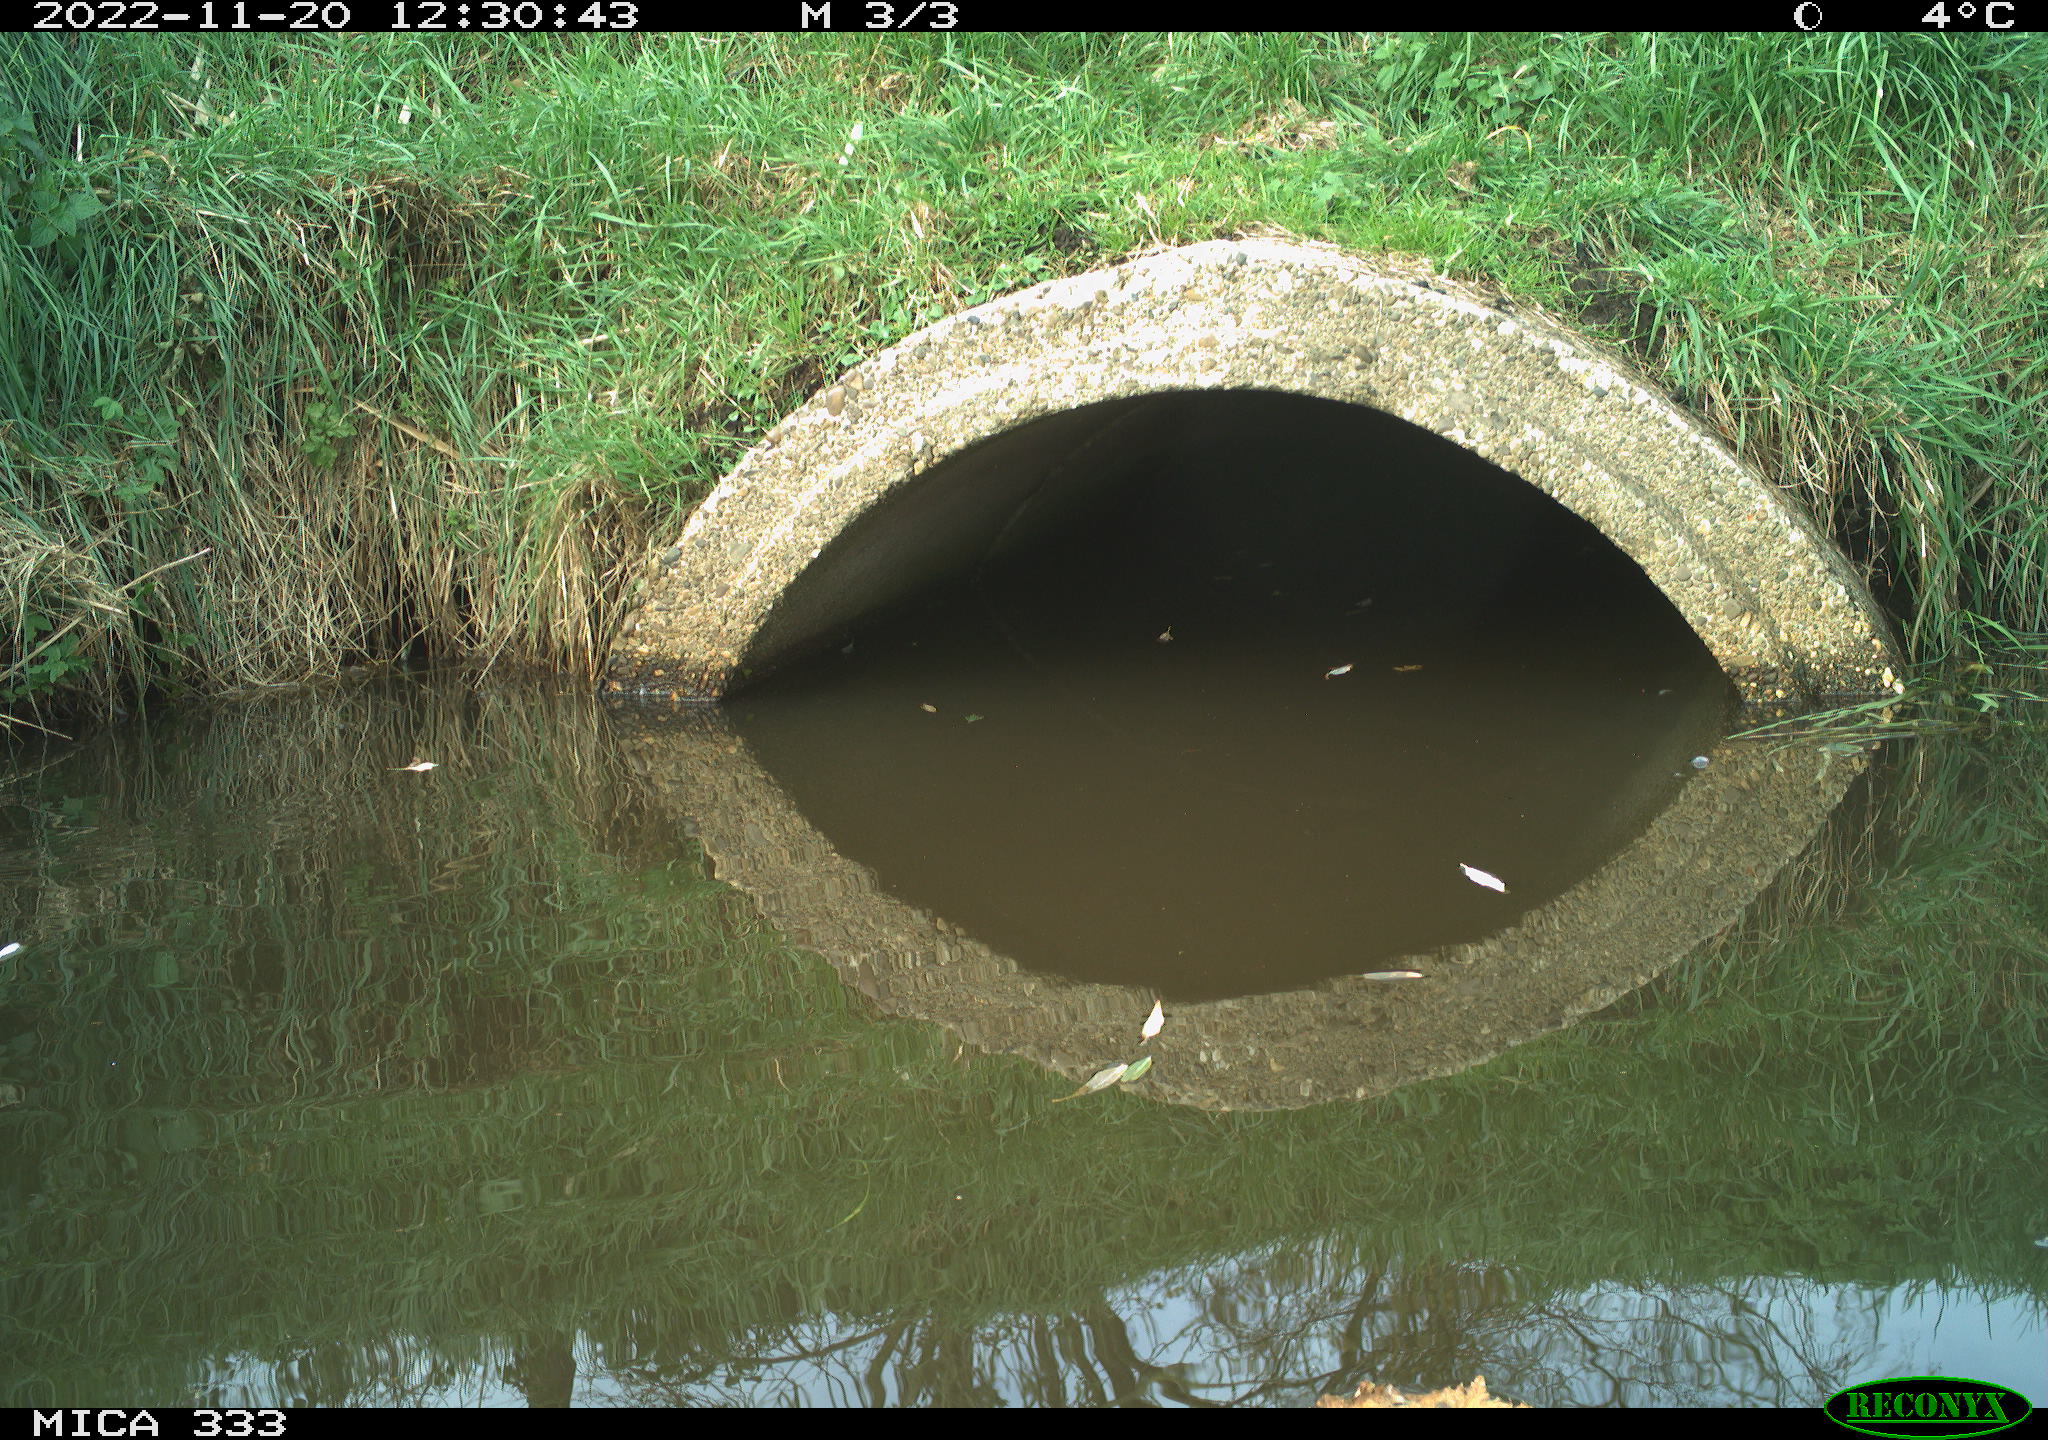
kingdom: Animalia
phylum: Chordata
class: Aves
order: Gruiformes
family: Rallidae
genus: Gallinula
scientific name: Gallinula chloropus
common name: Common moorhen
